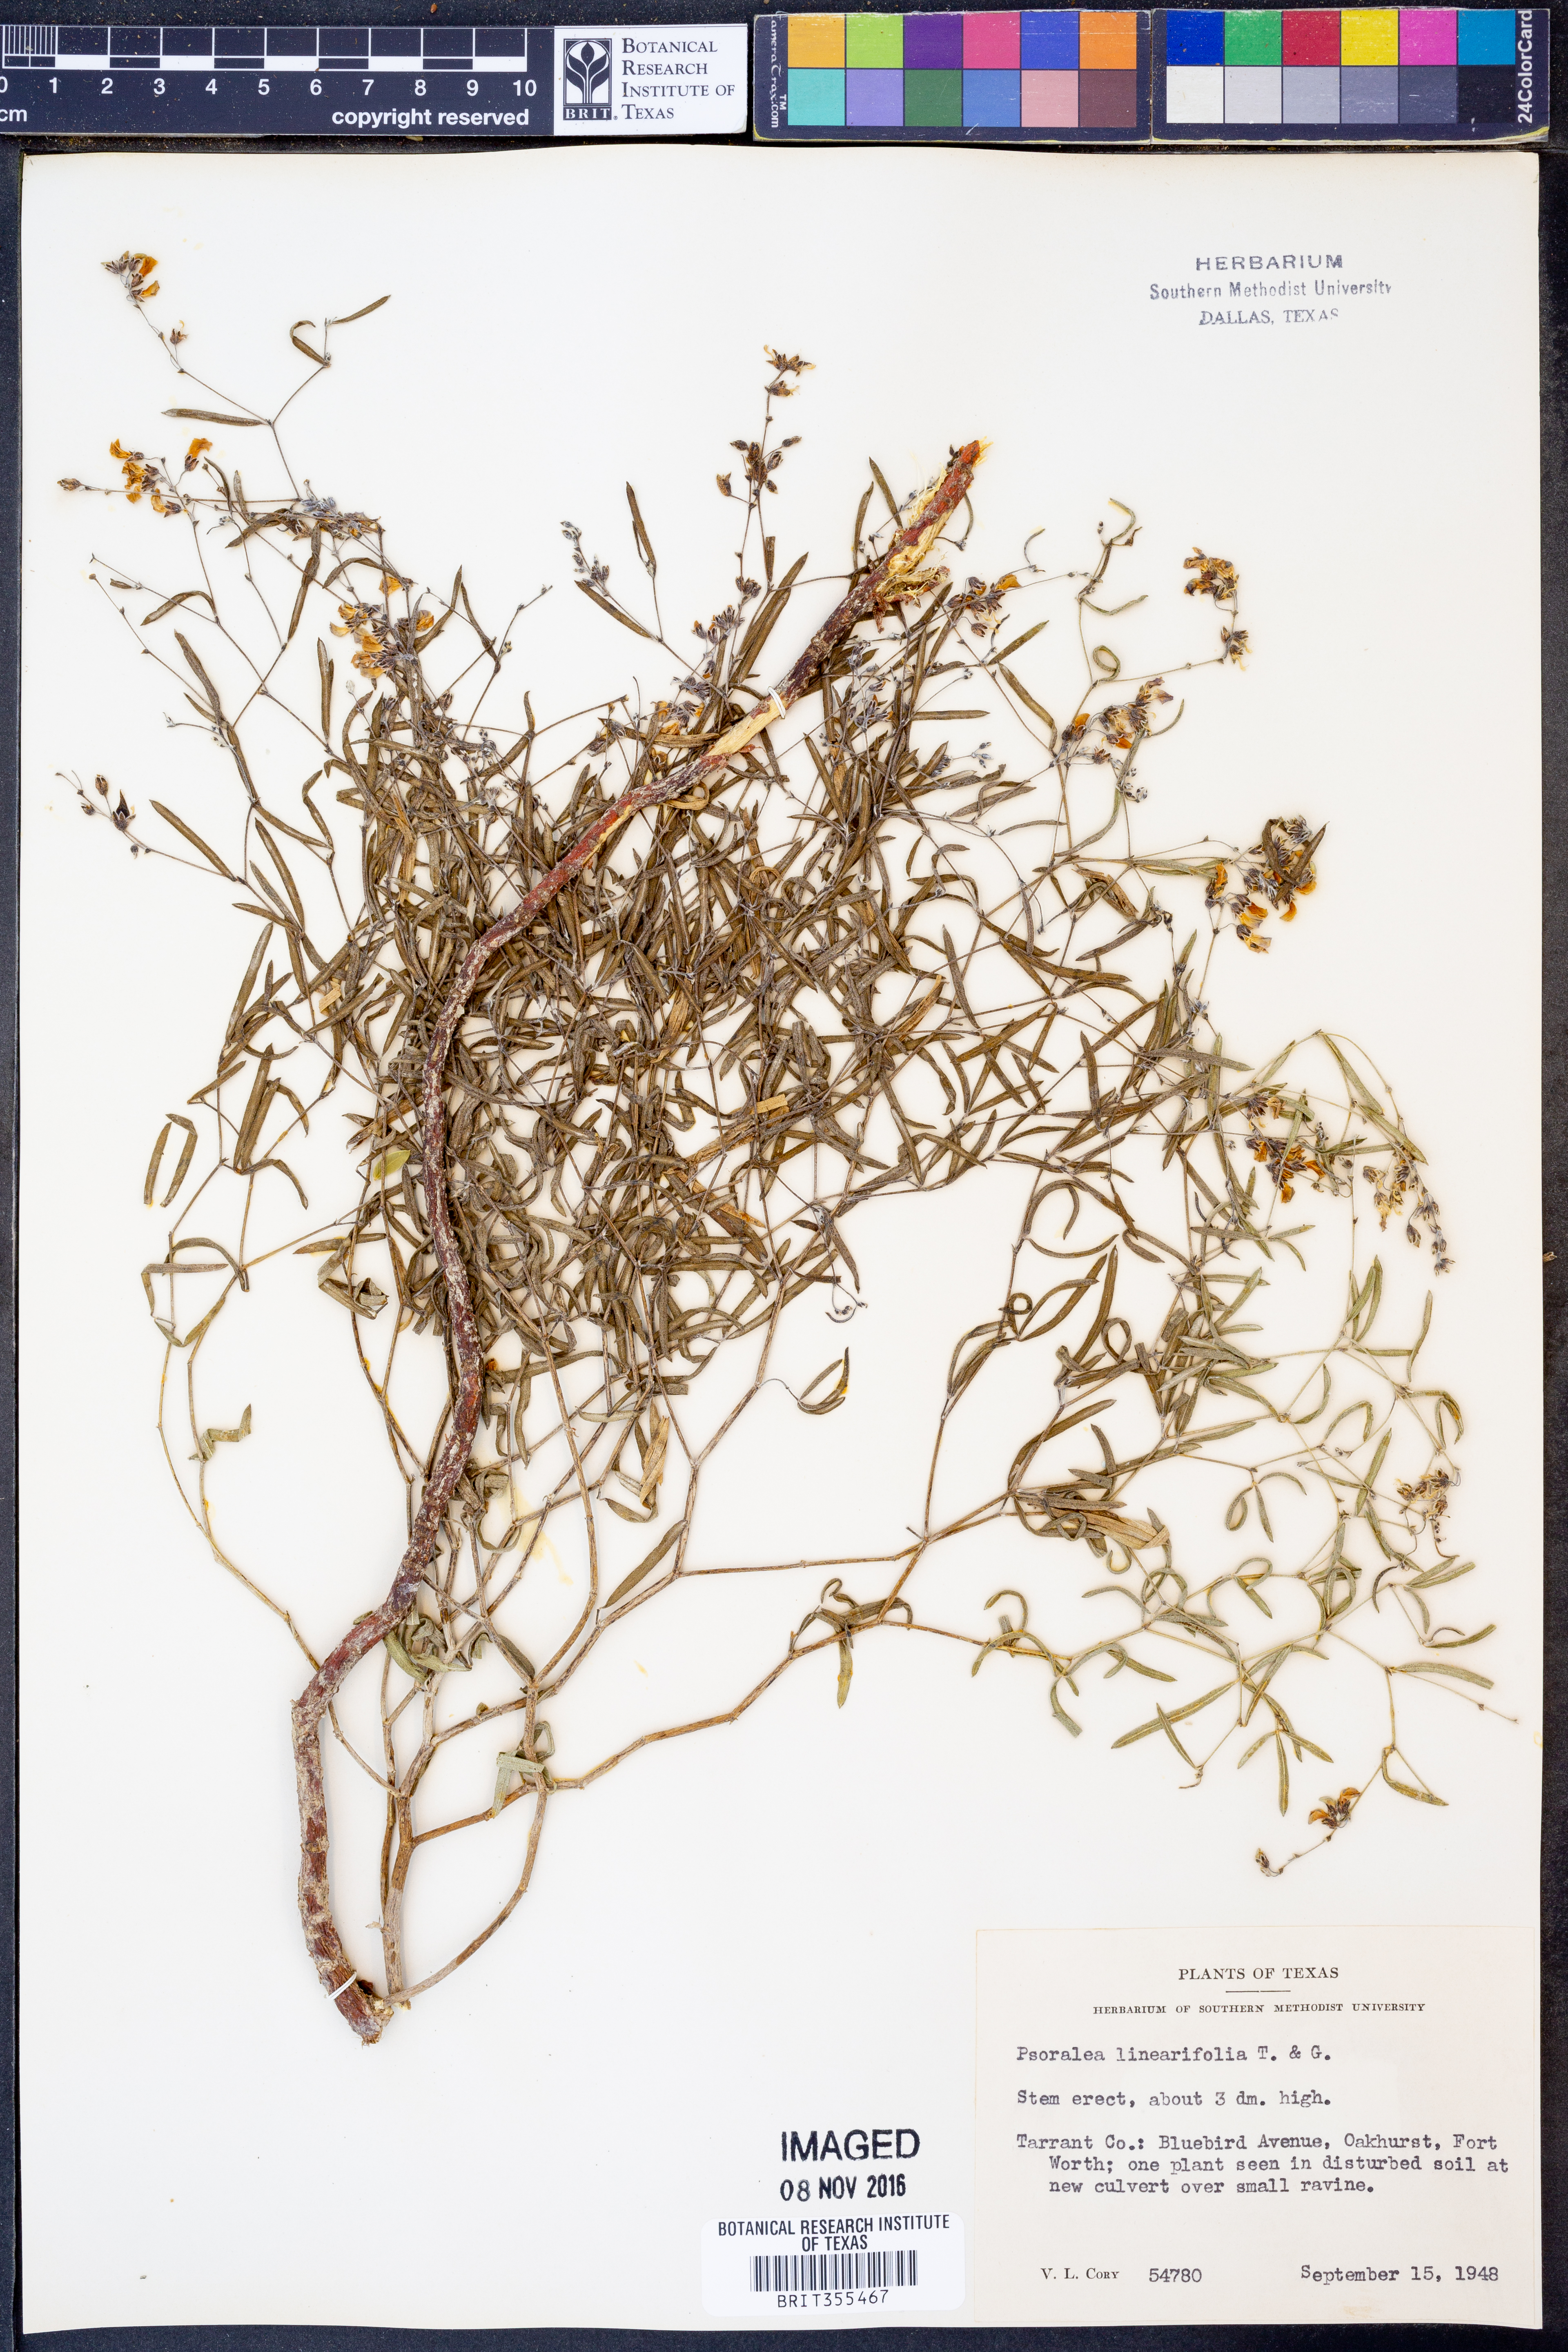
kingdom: Plantae
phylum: Tracheophyta
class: Magnoliopsida
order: Fabales
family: Fabaceae
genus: Pediomelum
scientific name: Pediomelum linearifolium
